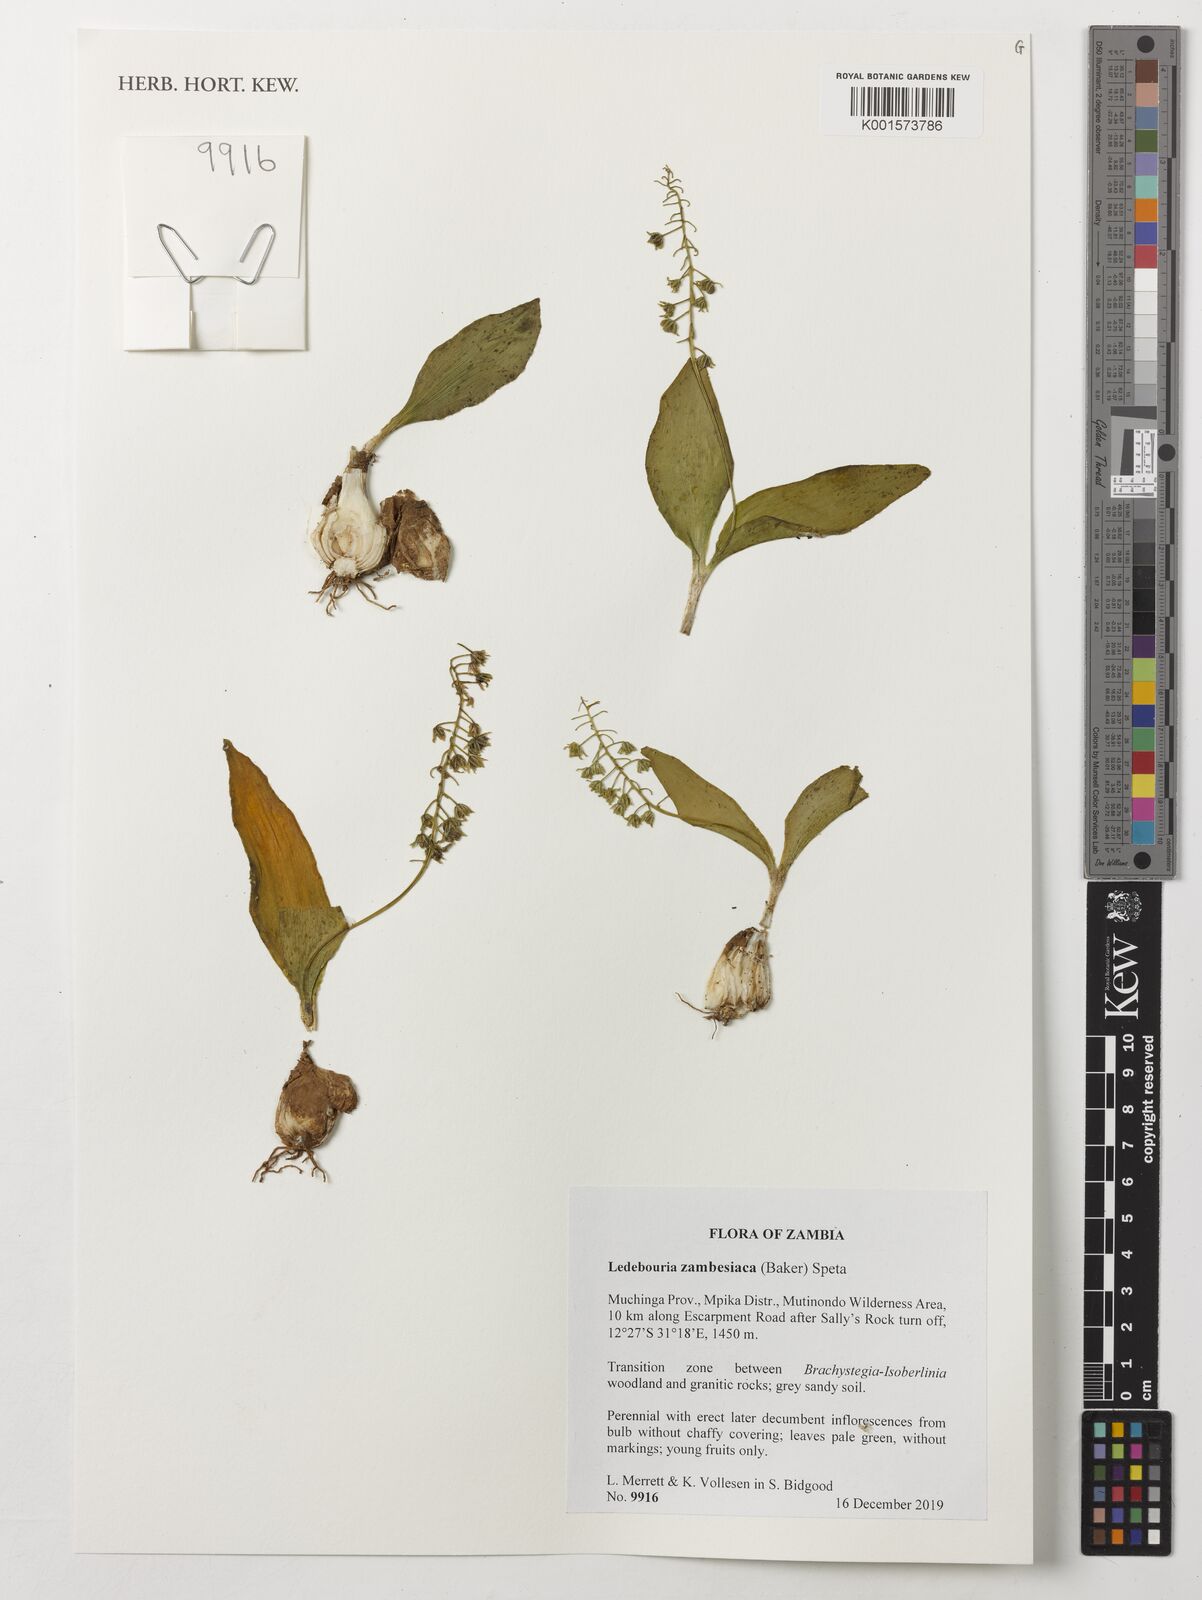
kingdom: Plantae
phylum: Tracheophyta
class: Liliopsida
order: Asparagales
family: Asparagaceae
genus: Ledebouria
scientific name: Ledebouria zambesiaca
